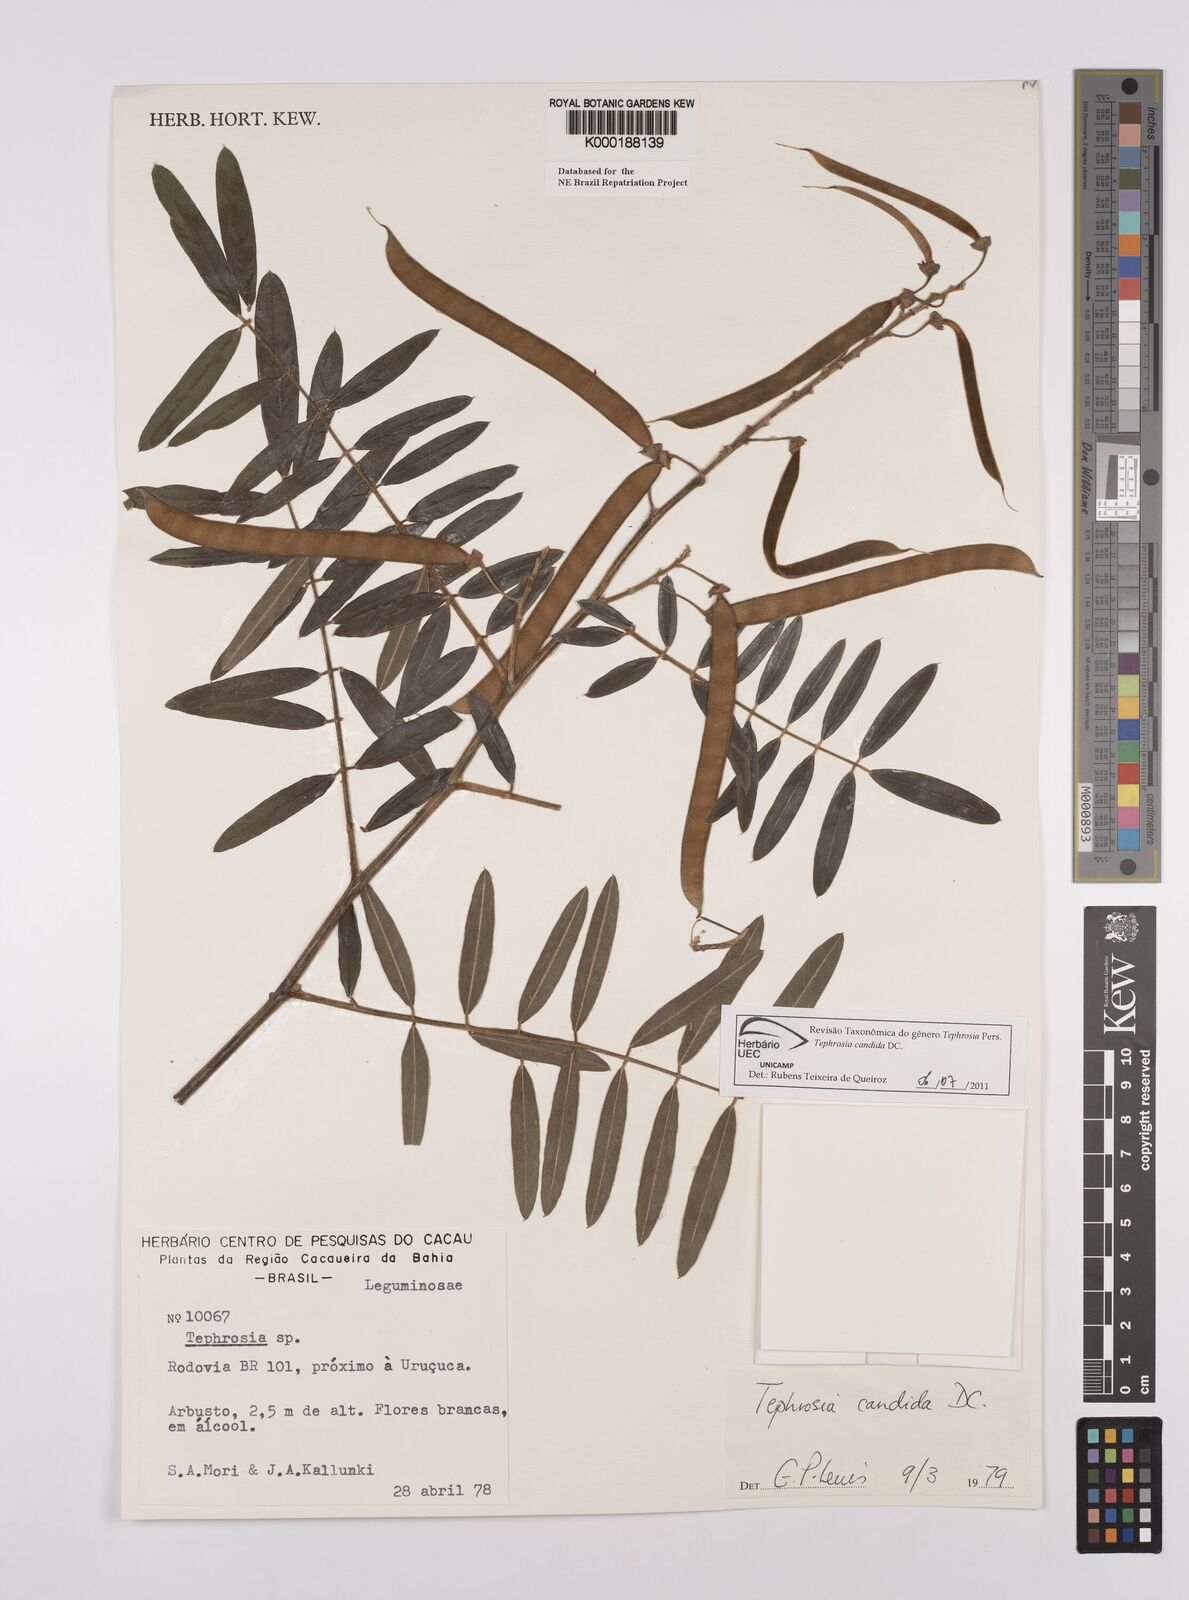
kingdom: Plantae
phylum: Tracheophyta
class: Magnoliopsida
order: Fabales
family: Fabaceae
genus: Tephrosia
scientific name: Tephrosia candida
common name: White tephrosia
